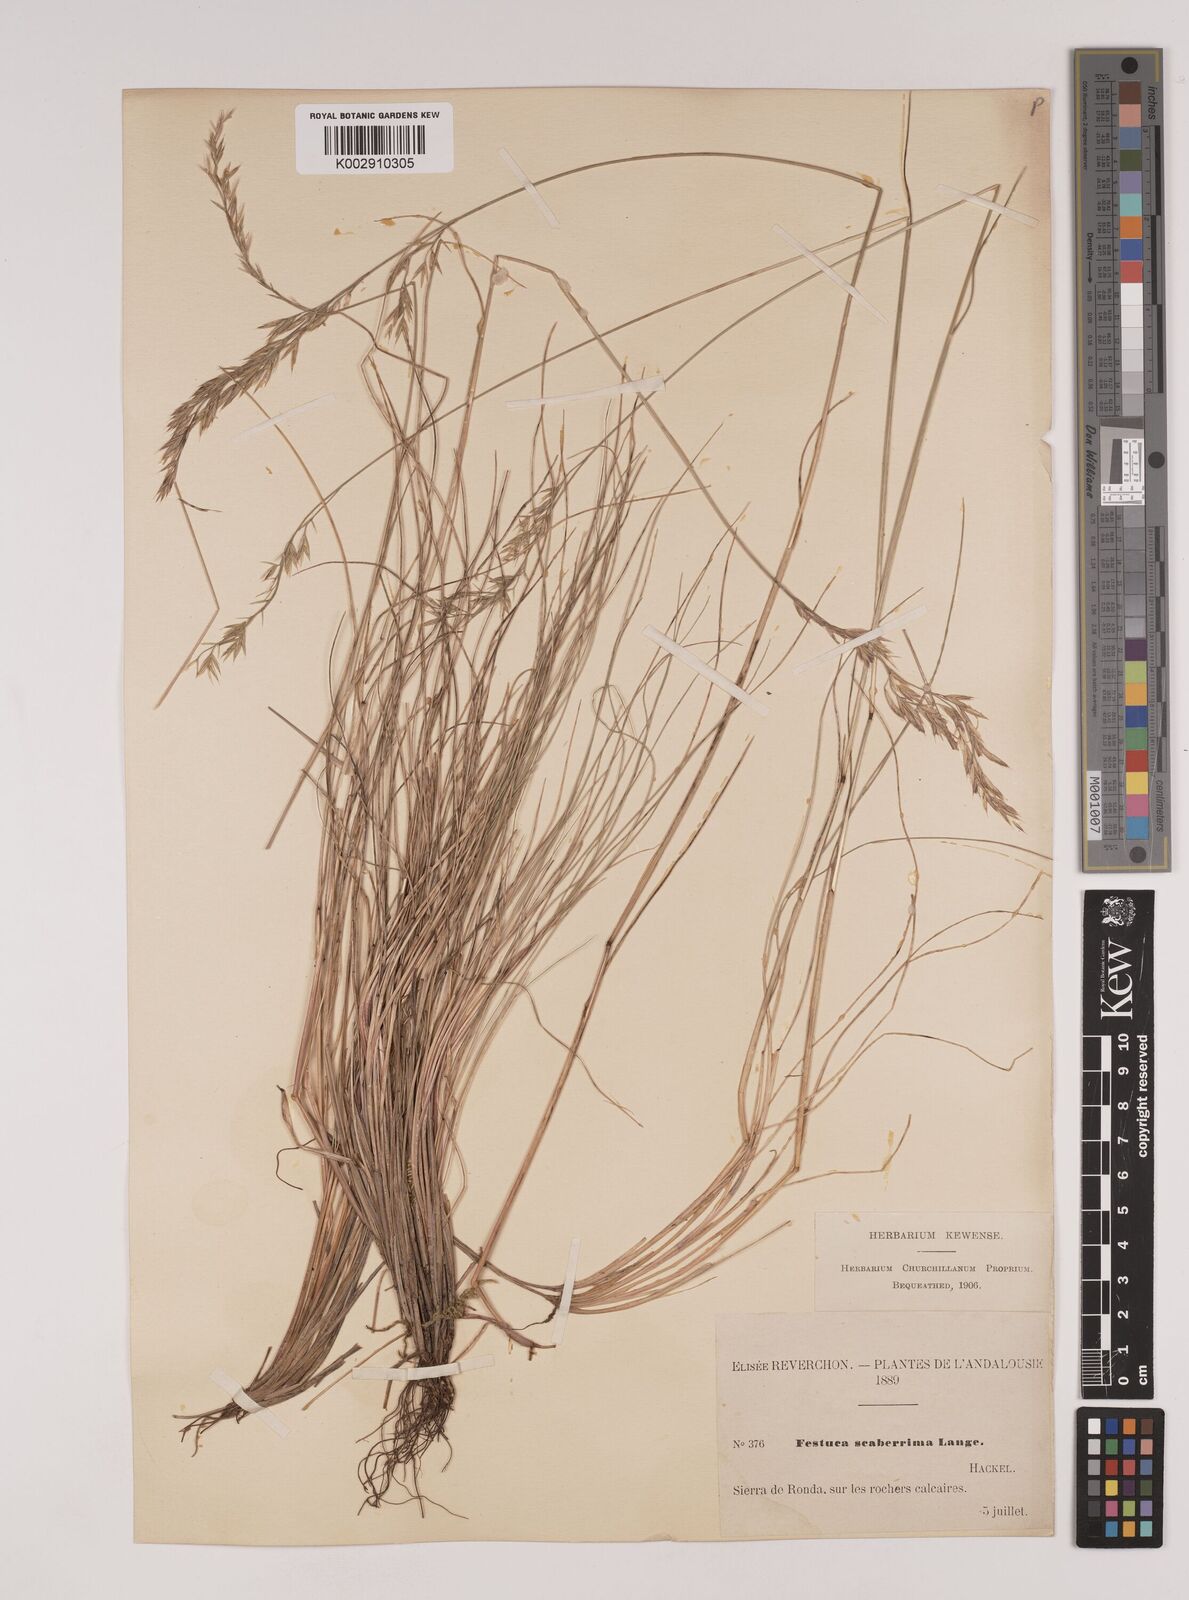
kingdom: Plantae
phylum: Tracheophyta
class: Liliopsida
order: Poales
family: Poaceae
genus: Festuca
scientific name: Festuca capillifolia
